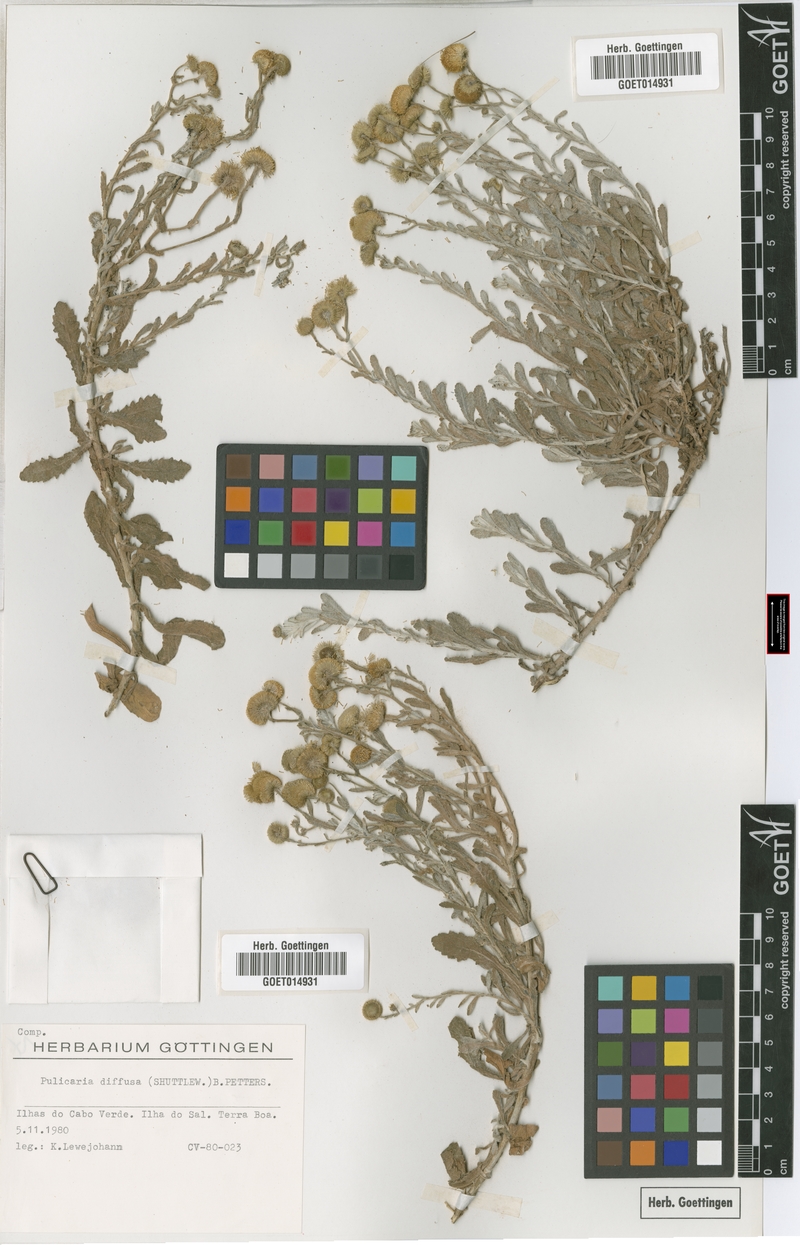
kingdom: Plantae
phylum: Tracheophyta
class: Magnoliopsida
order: Asterales
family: Asteraceae
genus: Pulicaria
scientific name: Pulicaria diffusa
